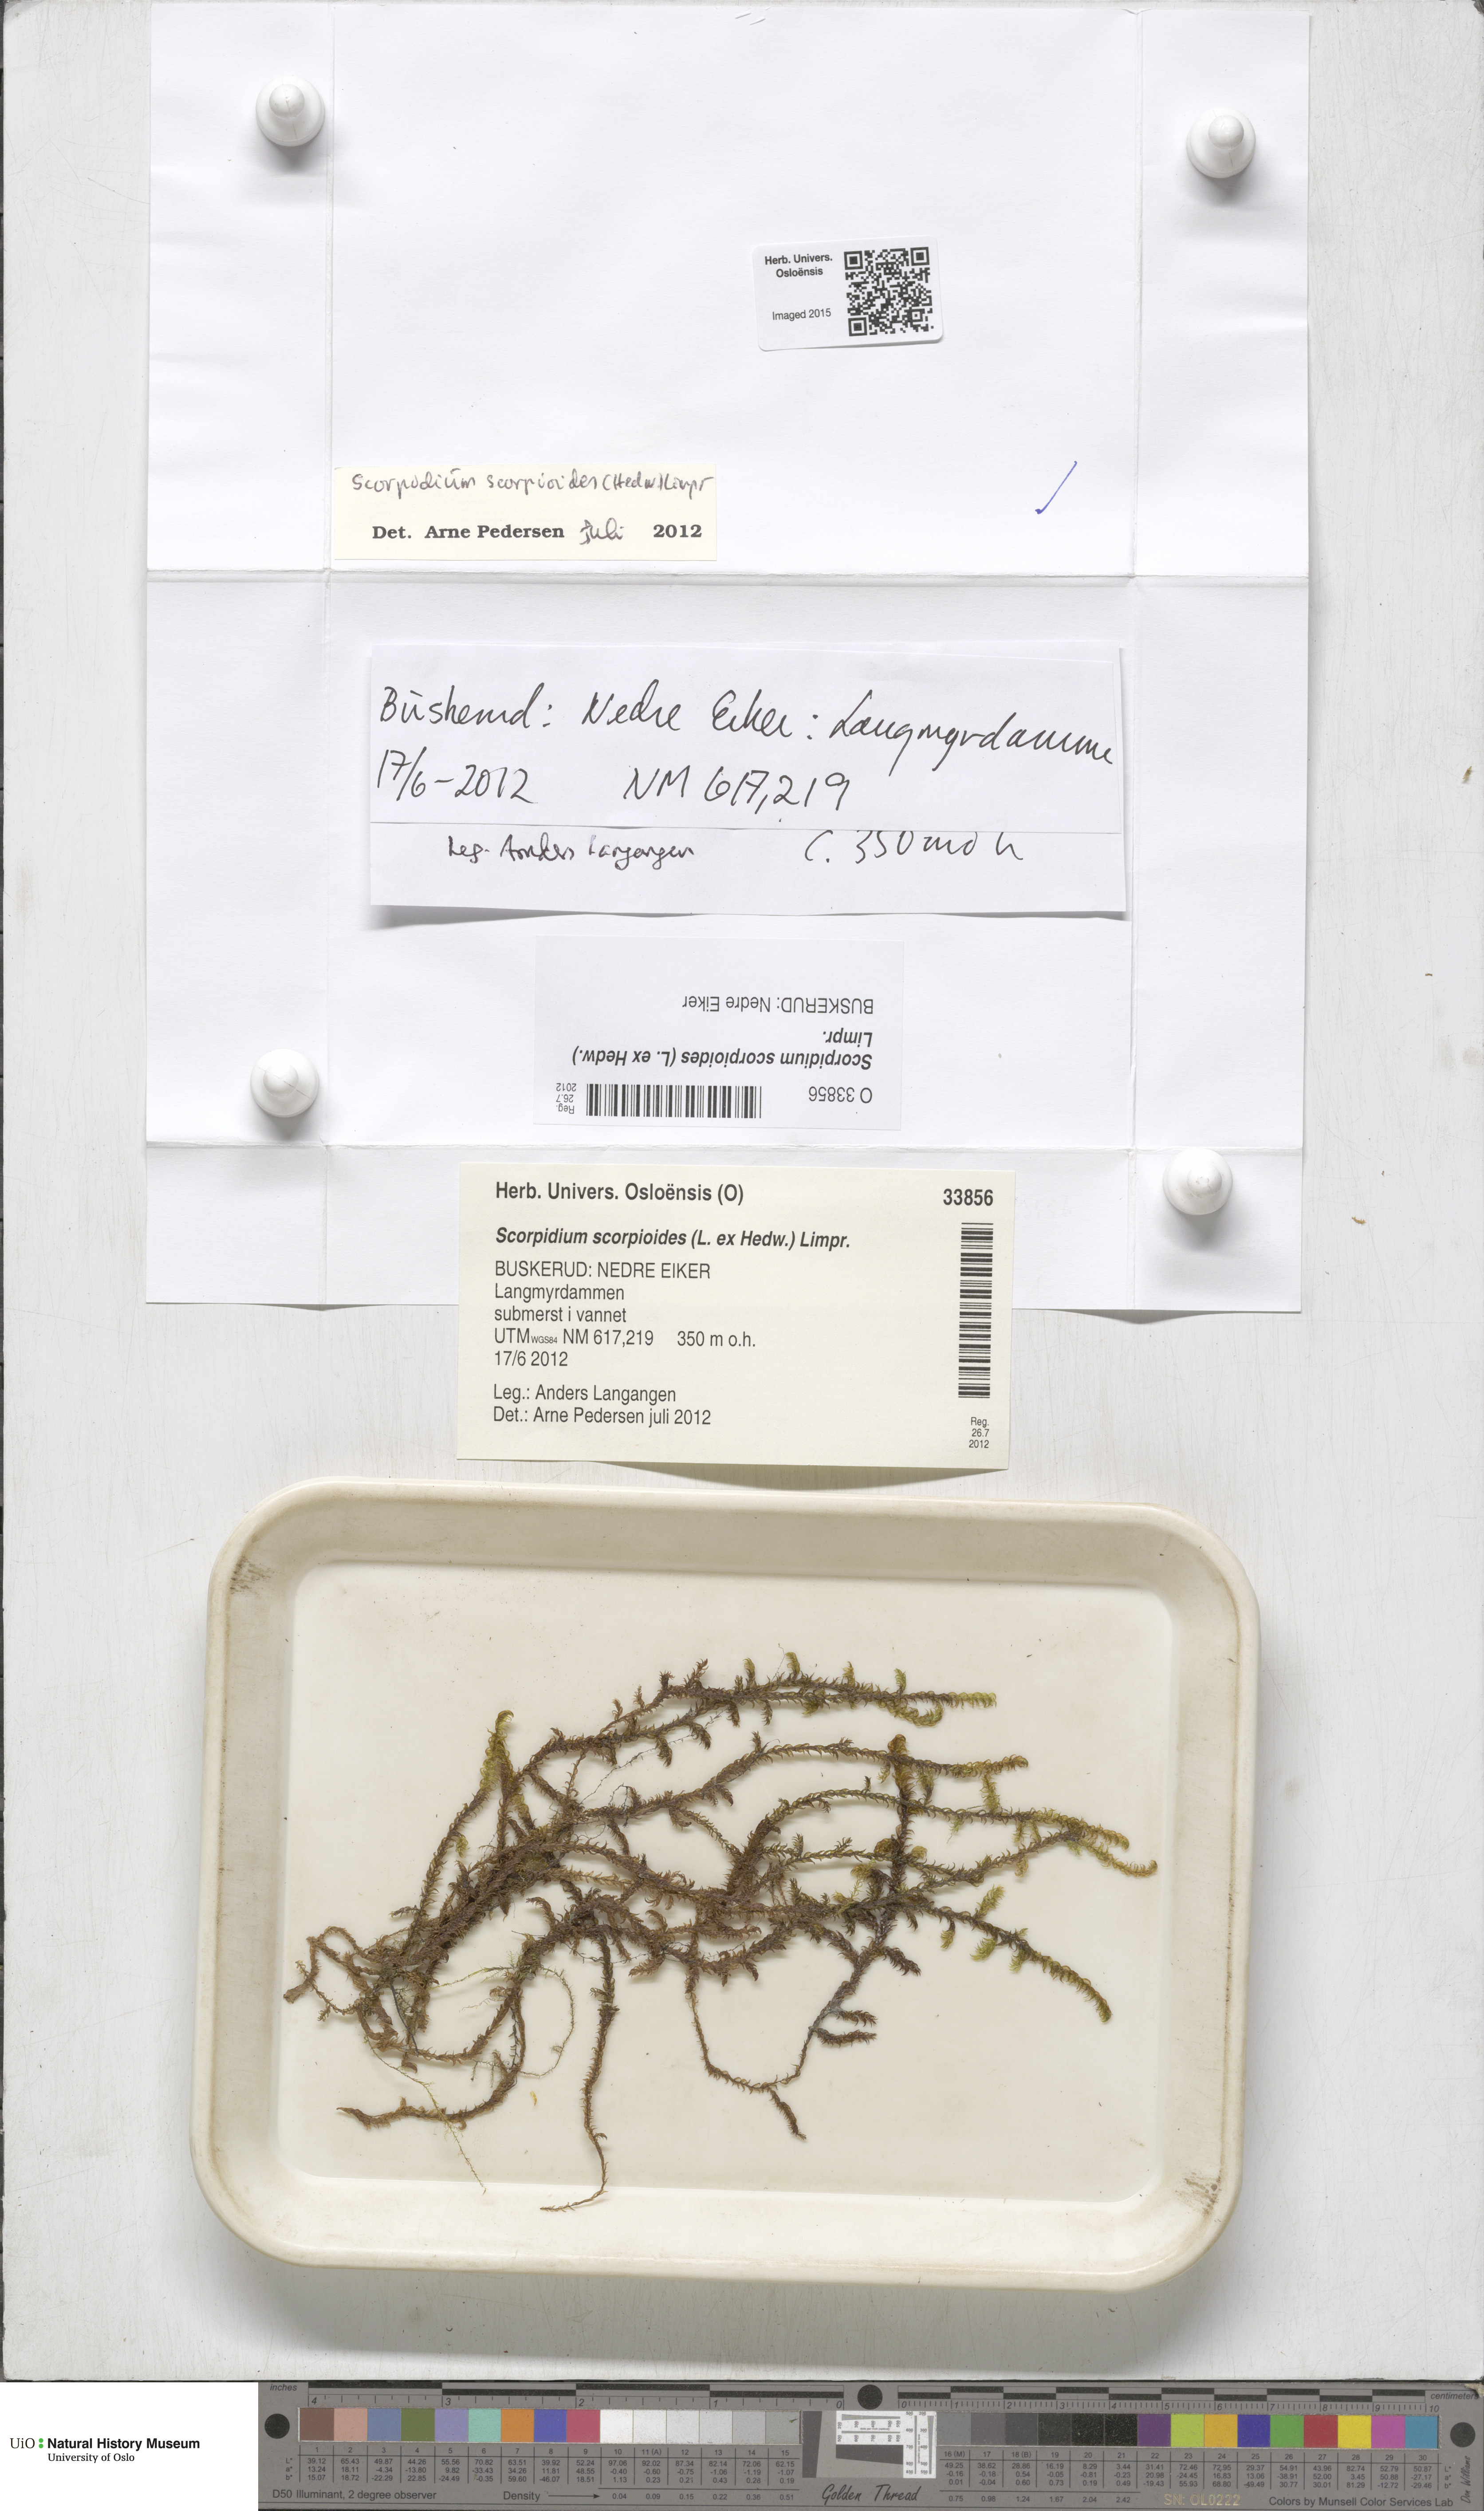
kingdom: Plantae
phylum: Bryophyta
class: Bryopsida
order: Hypnales
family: Scorpidiaceae
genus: Scorpidium
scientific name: Scorpidium scorpioides
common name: Hooked scorpion moss
